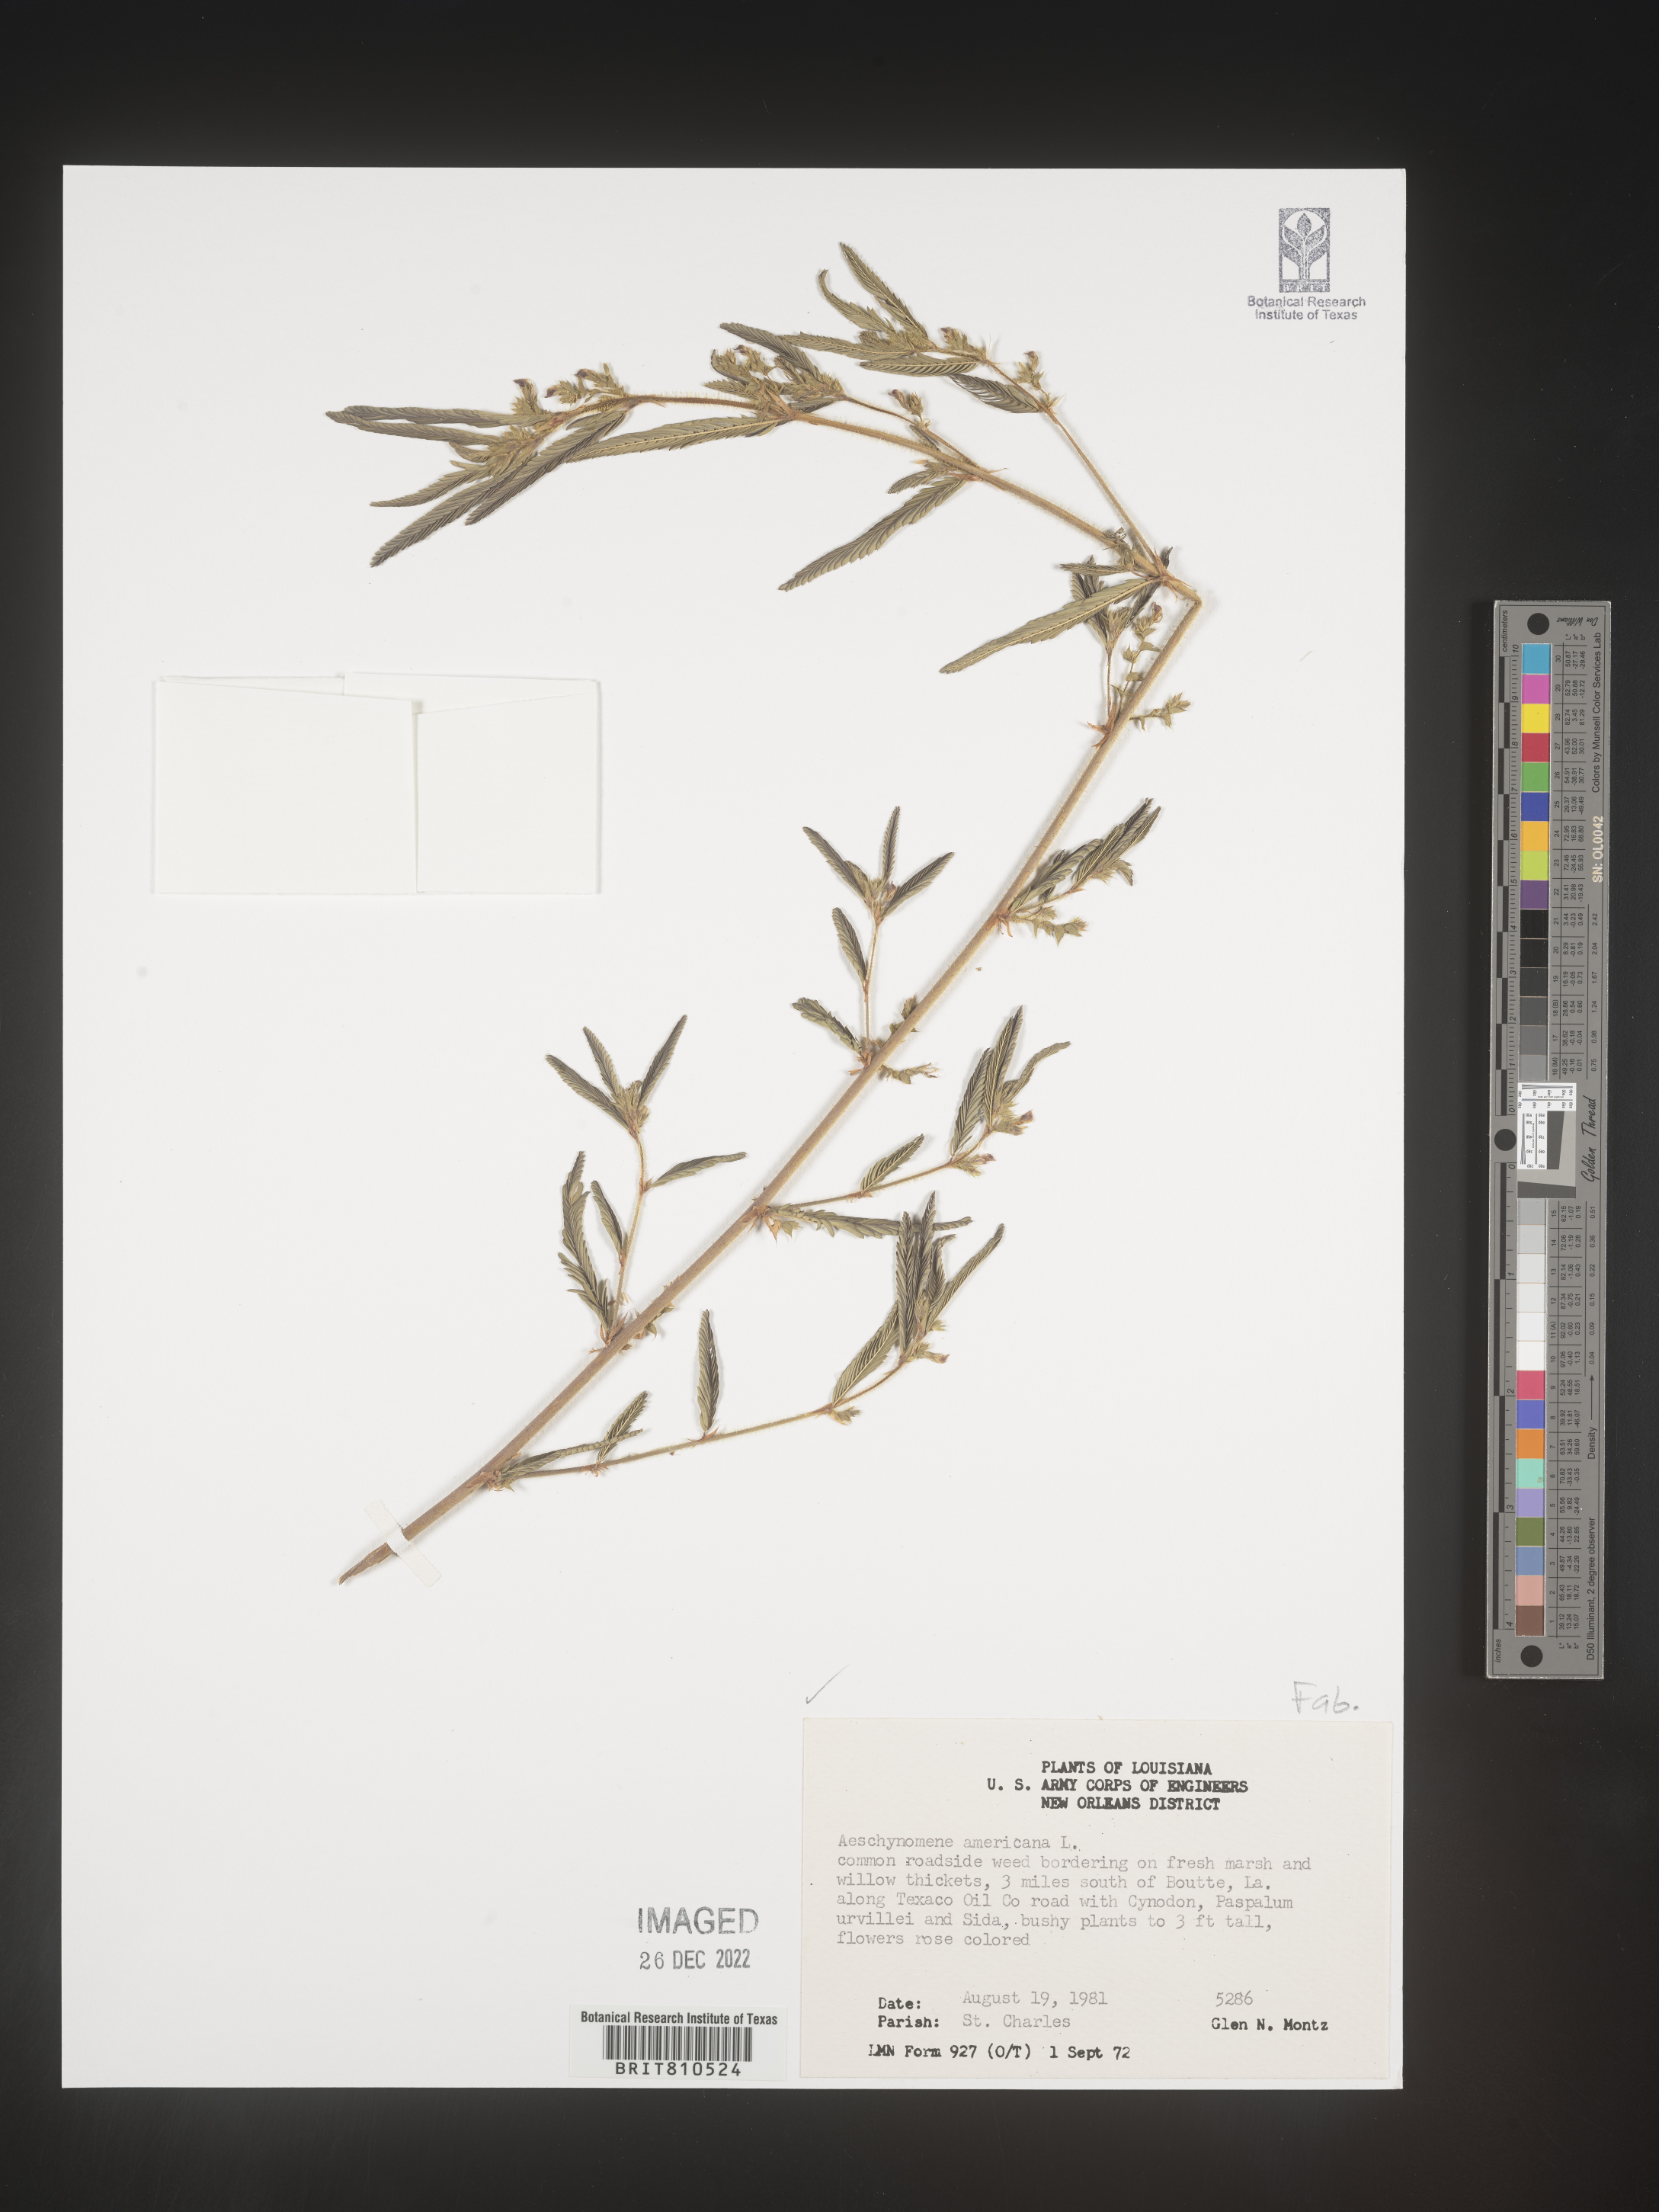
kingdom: Plantae
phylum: Tracheophyta
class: Magnoliopsida
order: Fabales
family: Fabaceae
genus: Aeschynomene
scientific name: Aeschynomene americana
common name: Joint-vetch
